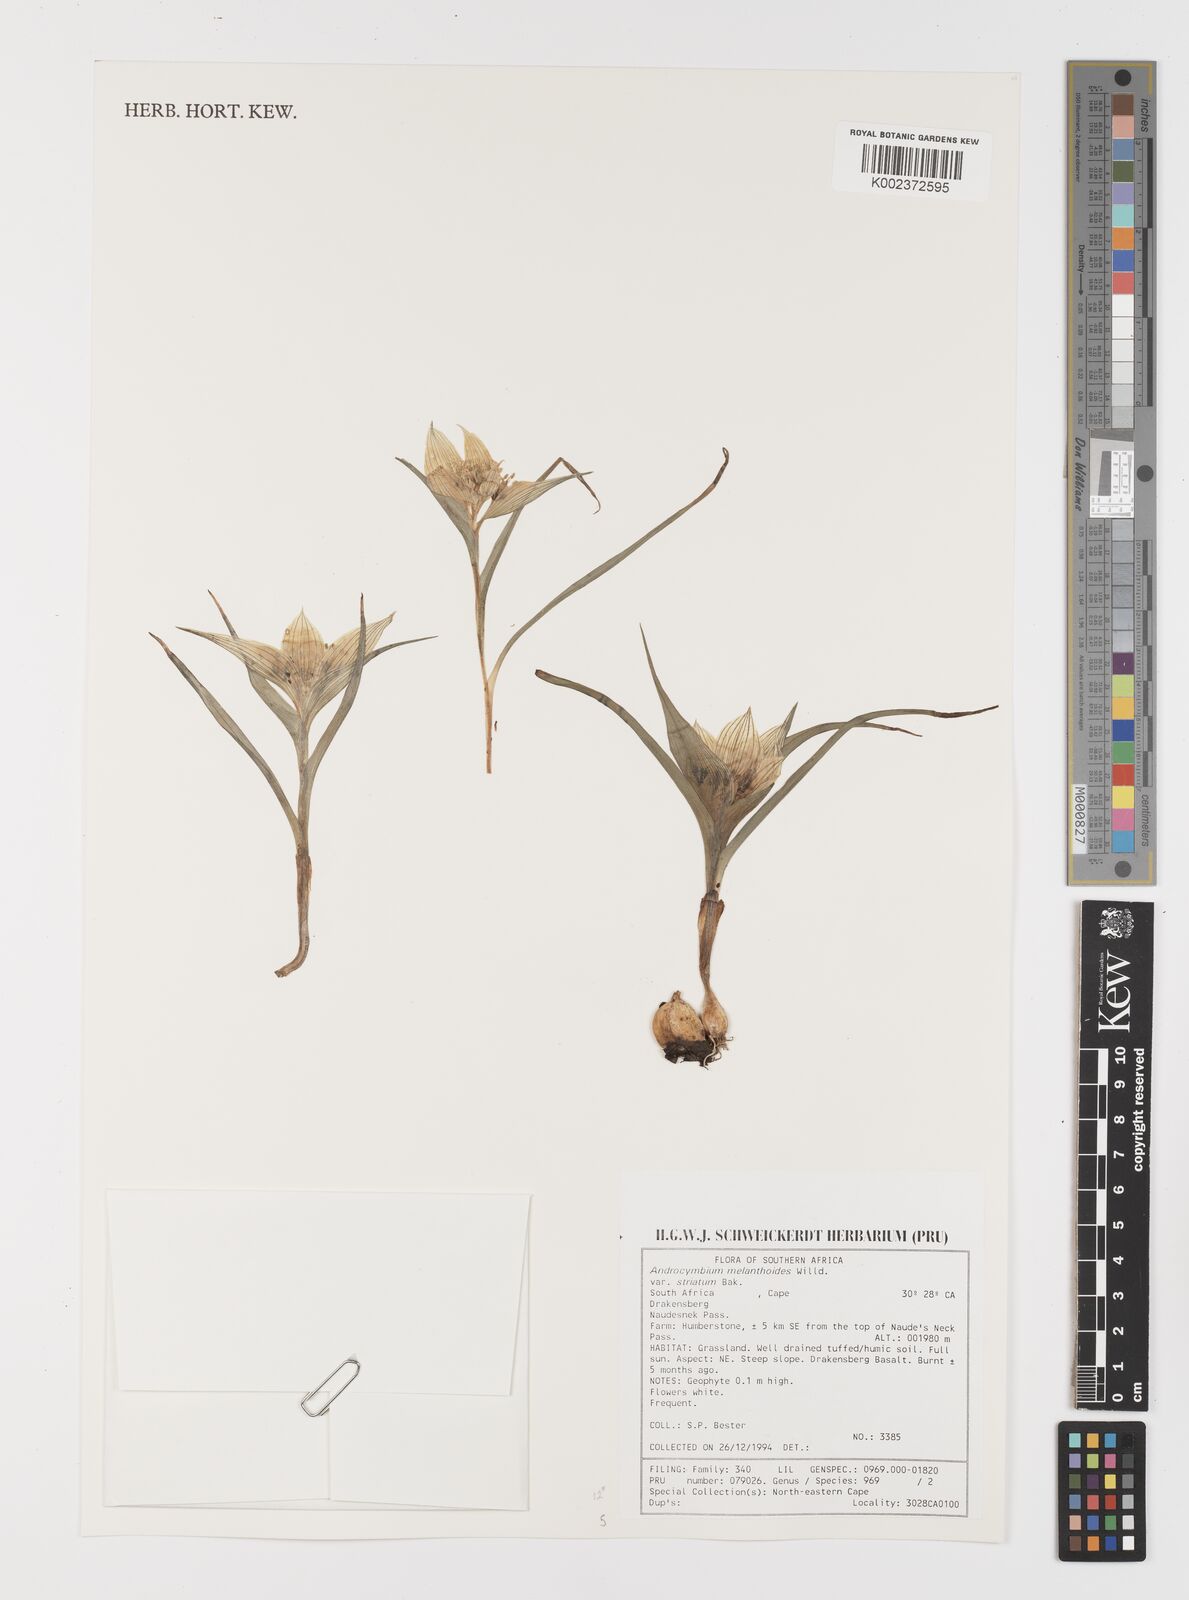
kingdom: Plantae
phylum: Tracheophyta
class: Liliopsida
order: Liliales
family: Colchicaceae
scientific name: Colchicaceae
